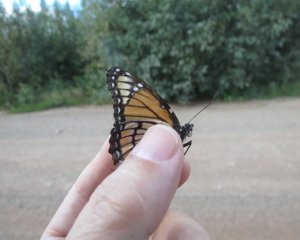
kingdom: Animalia
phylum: Arthropoda
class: Insecta
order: Lepidoptera
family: Nymphalidae
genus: Limenitis
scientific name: Limenitis archippus
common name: Viceroy
